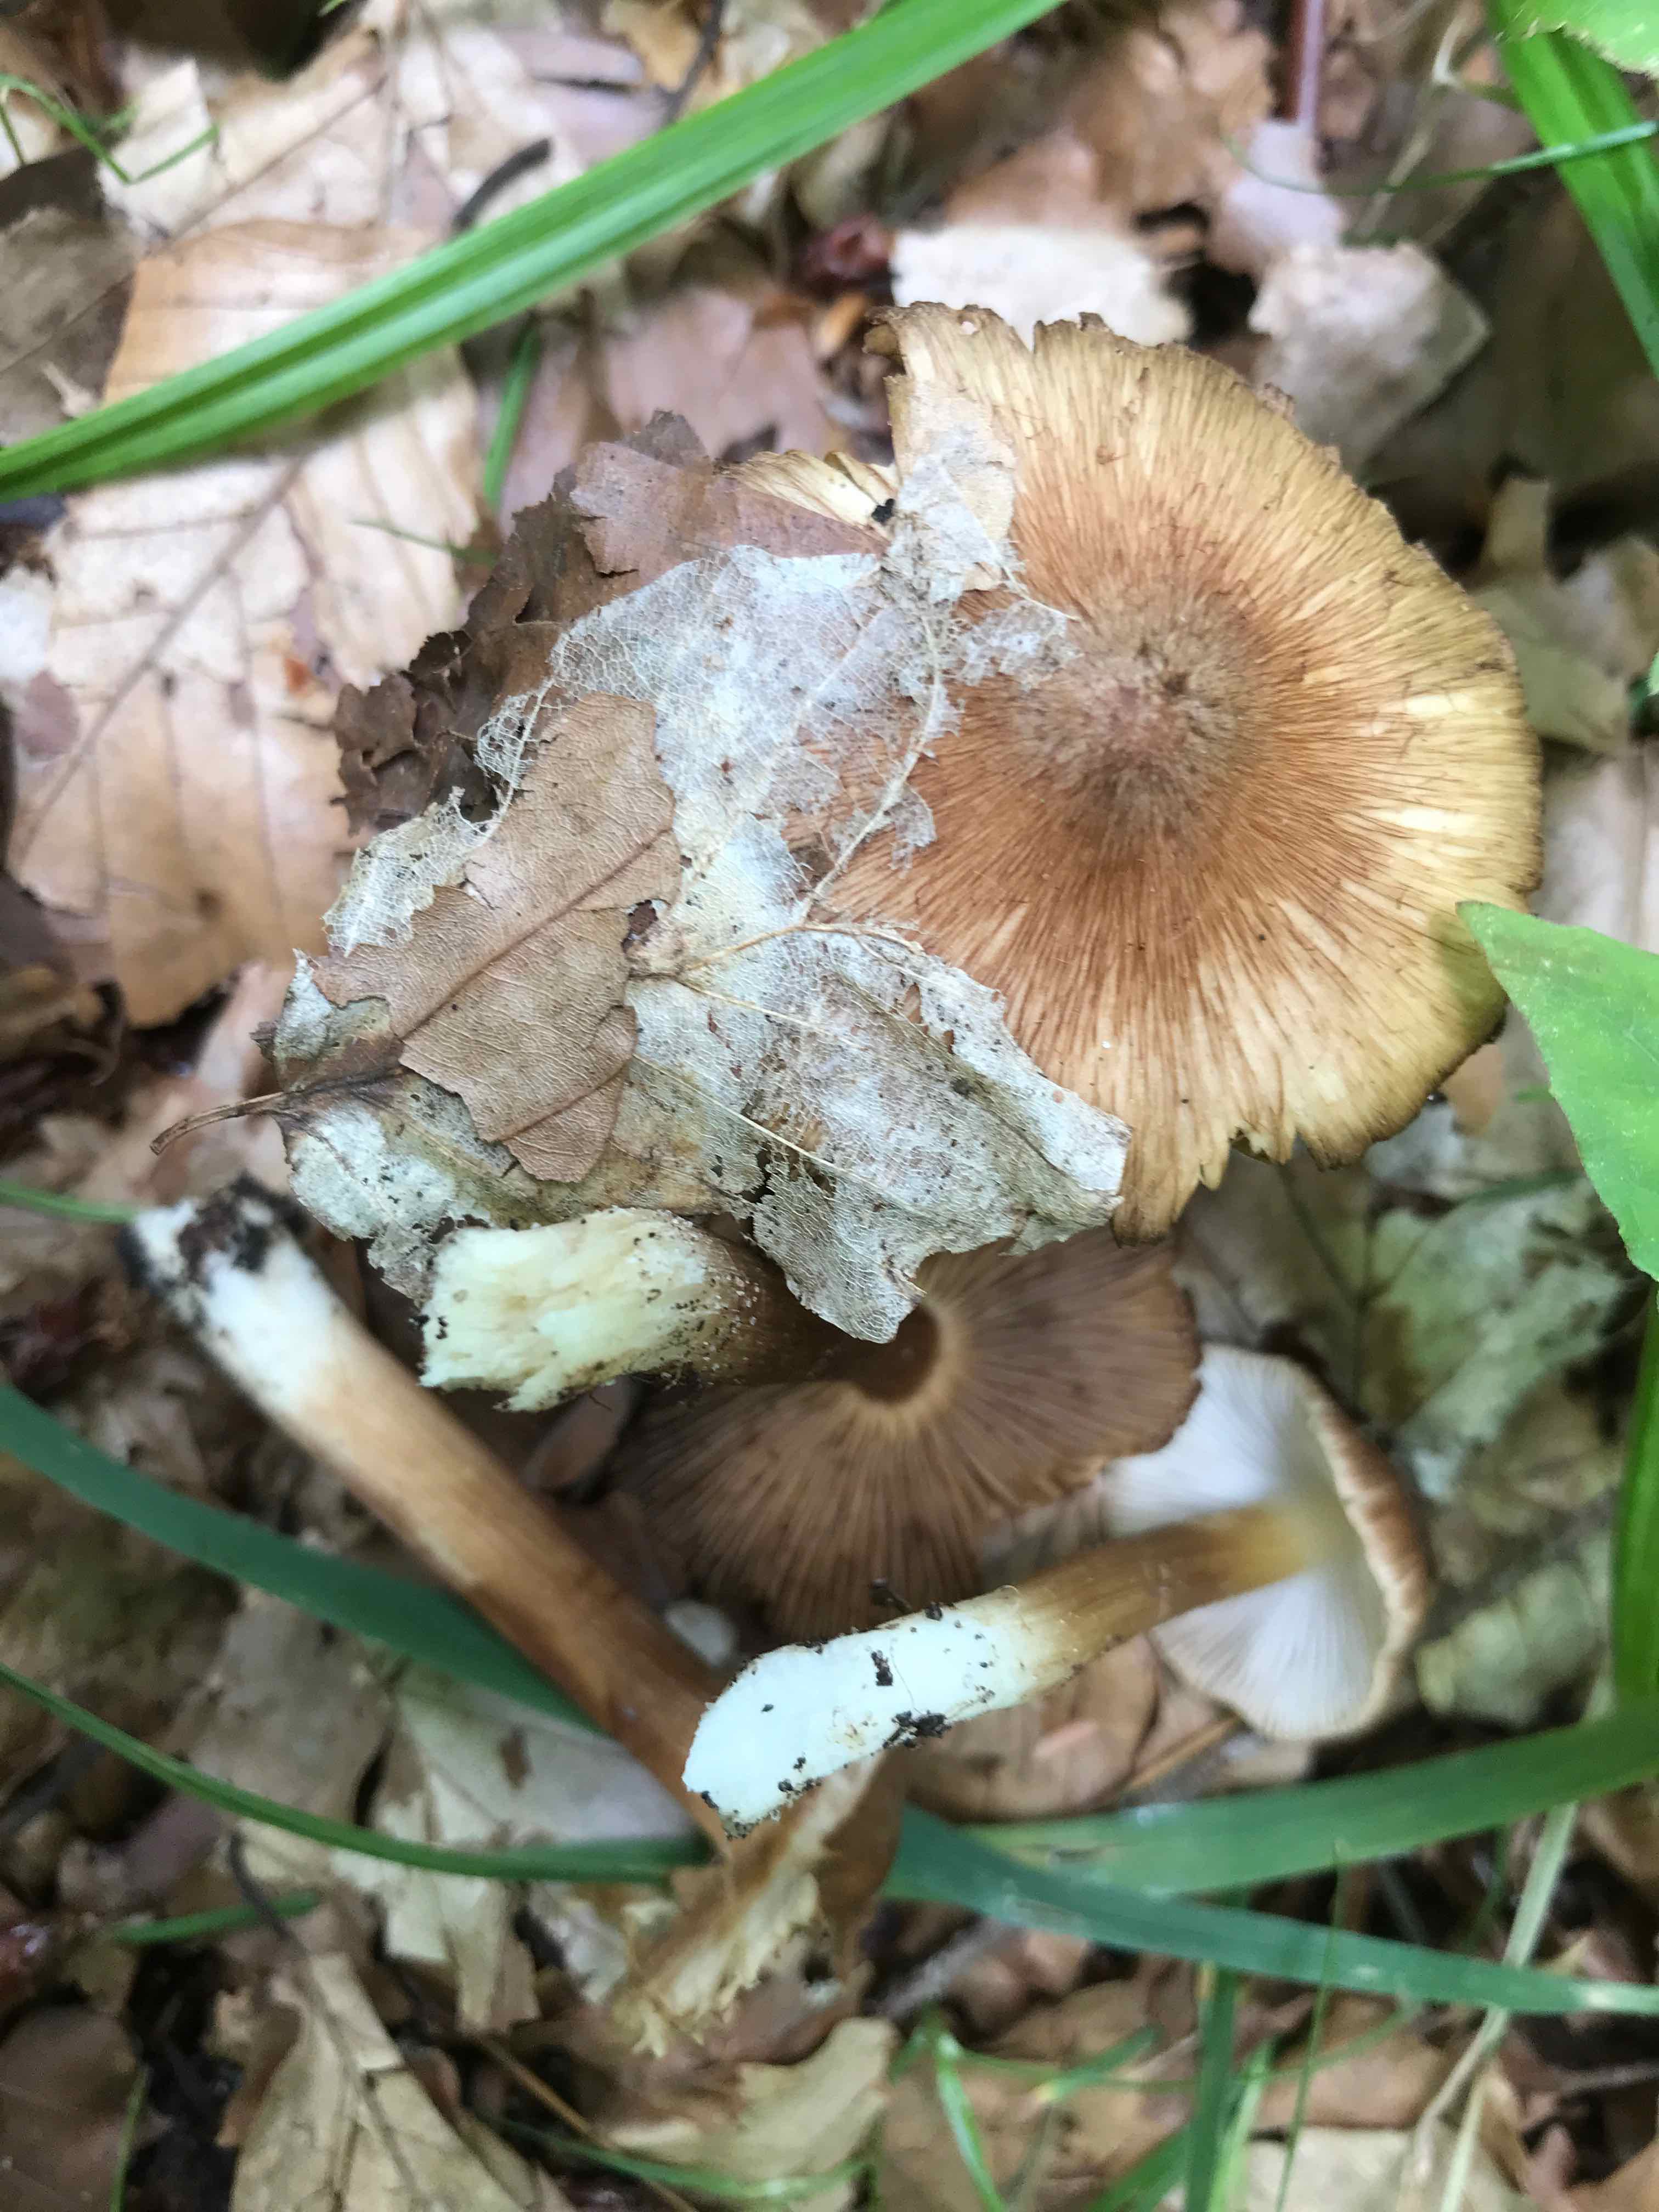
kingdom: Fungi
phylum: Basidiomycota
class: Agaricomycetes
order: Agaricales
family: Inocybaceae
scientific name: Inocybaceae
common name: trævlhatfamilien
